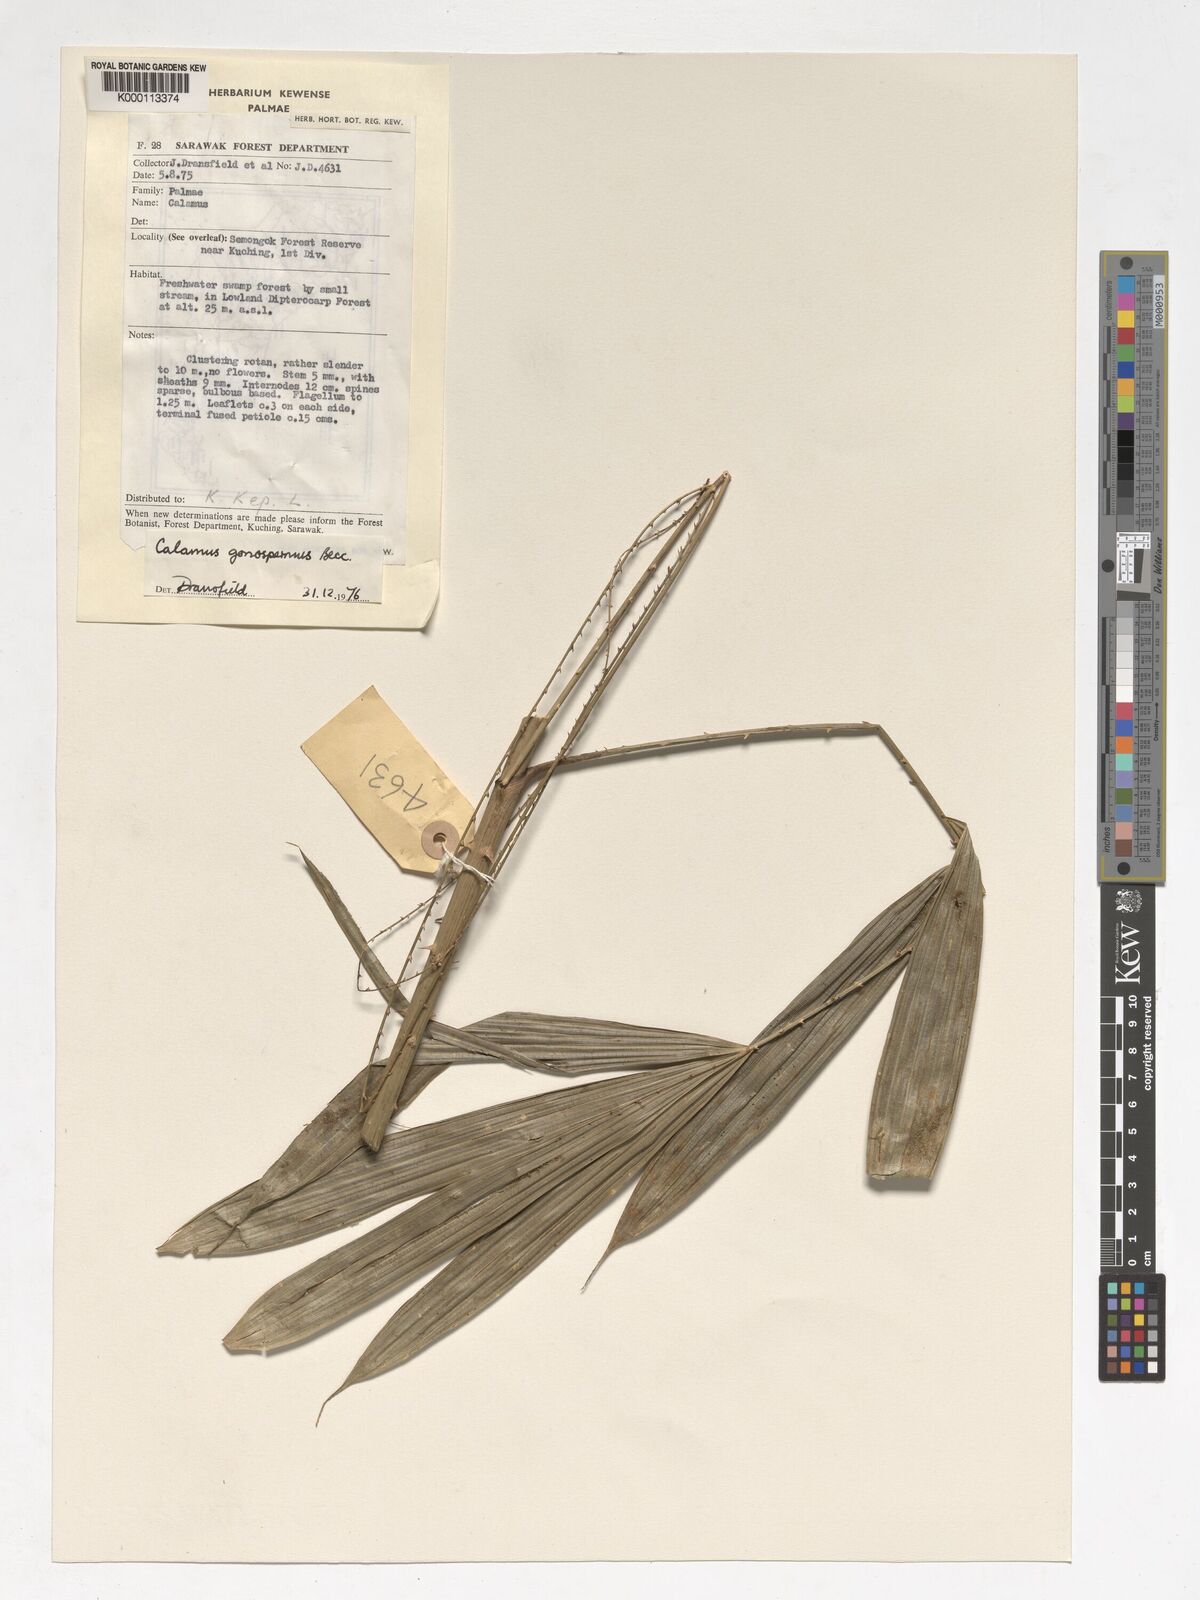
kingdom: Plantae
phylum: Tracheophyta
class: Liliopsida
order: Arecales
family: Arecaceae
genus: Calamus
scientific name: Calamus gonospermus
